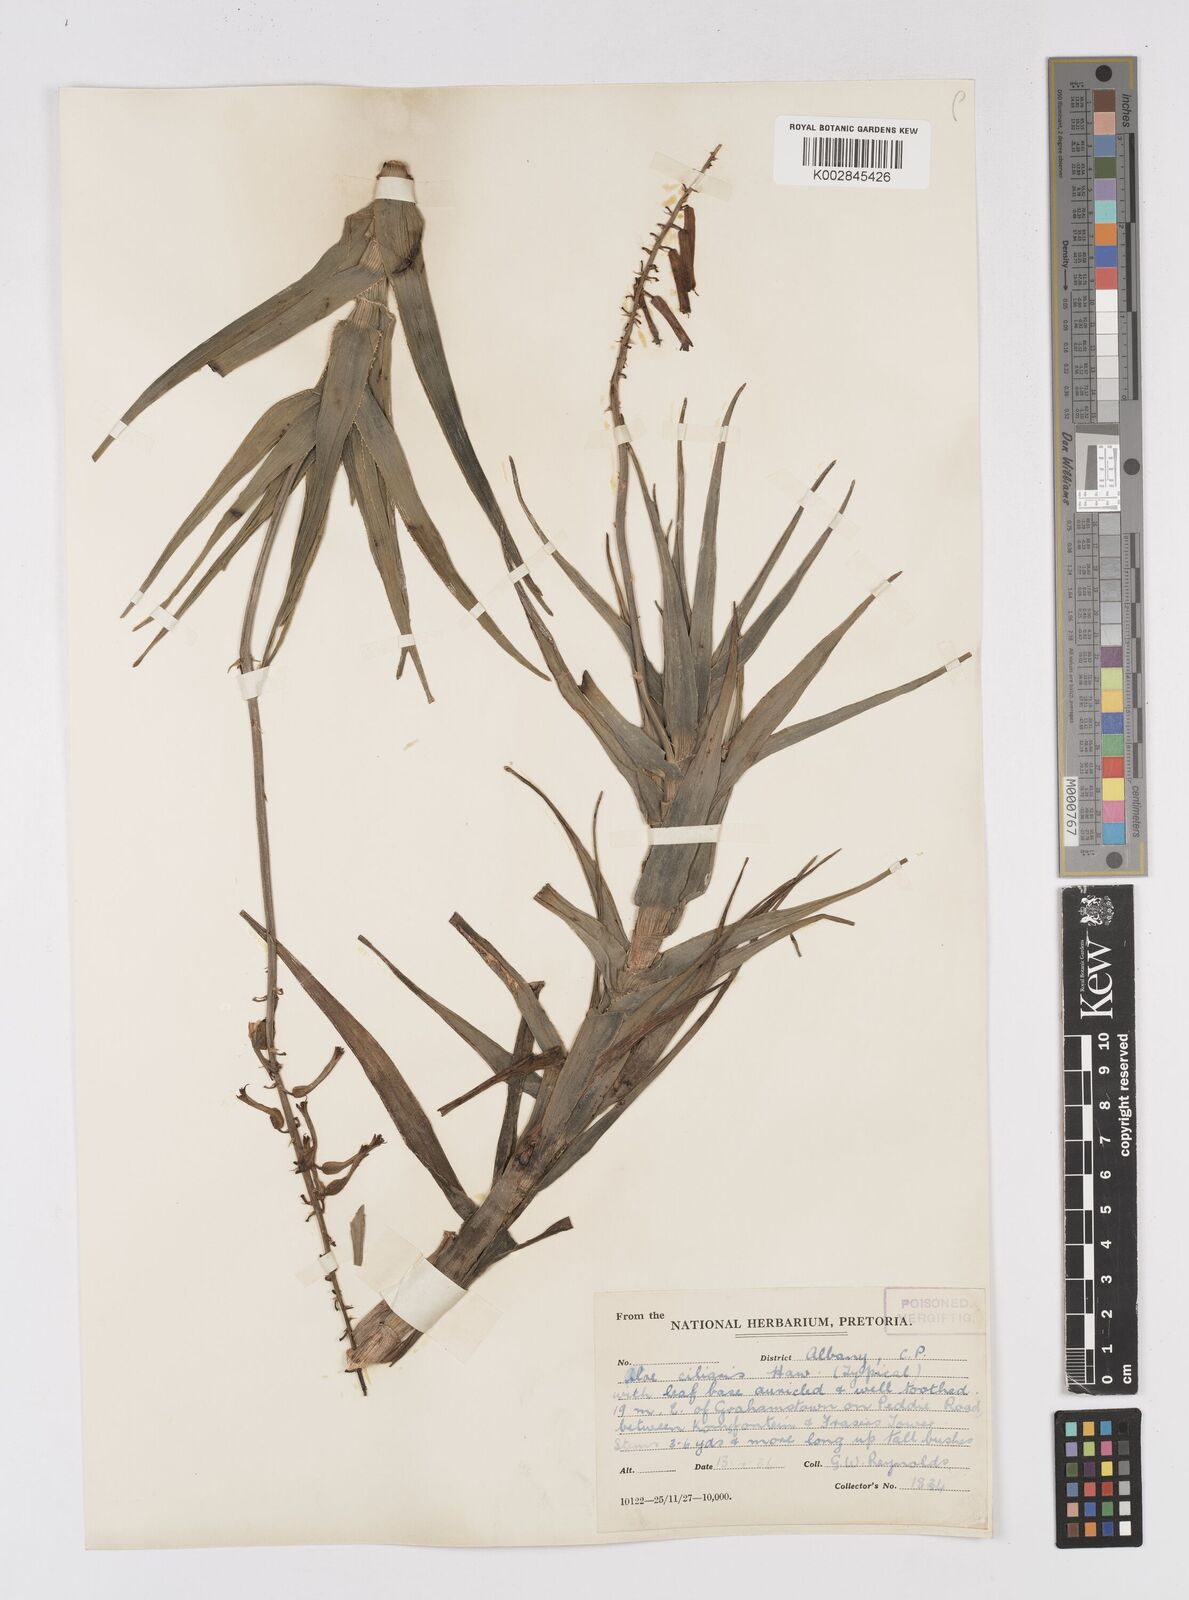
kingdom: Plantae
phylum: Tracheophyta
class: Liliopsida
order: Asparagales
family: Asphodelaceae
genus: Aloiampelos
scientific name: Aloiampelos ciliaris
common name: Climbing aloe
